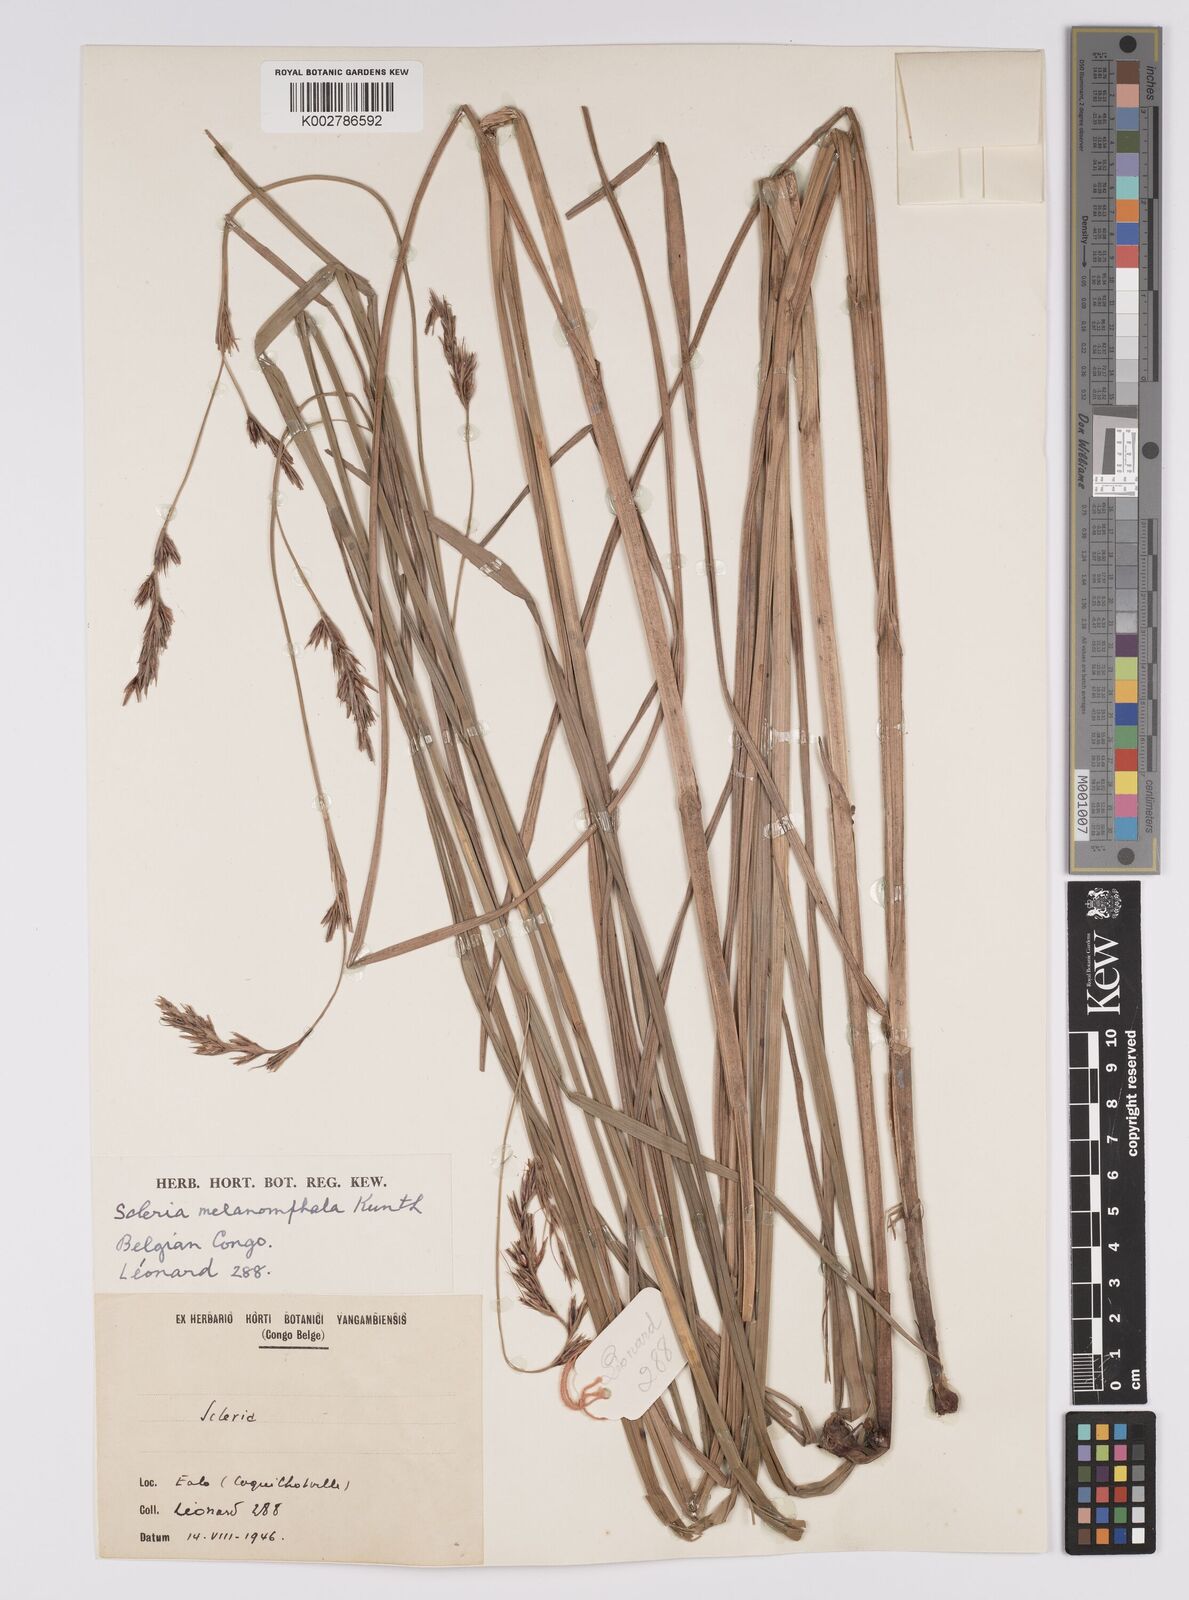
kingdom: Plantae
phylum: Tracheophyta
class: Liliopsida
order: Poales
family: Cyperaceae
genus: Scleria
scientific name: Scleria melanomphala
